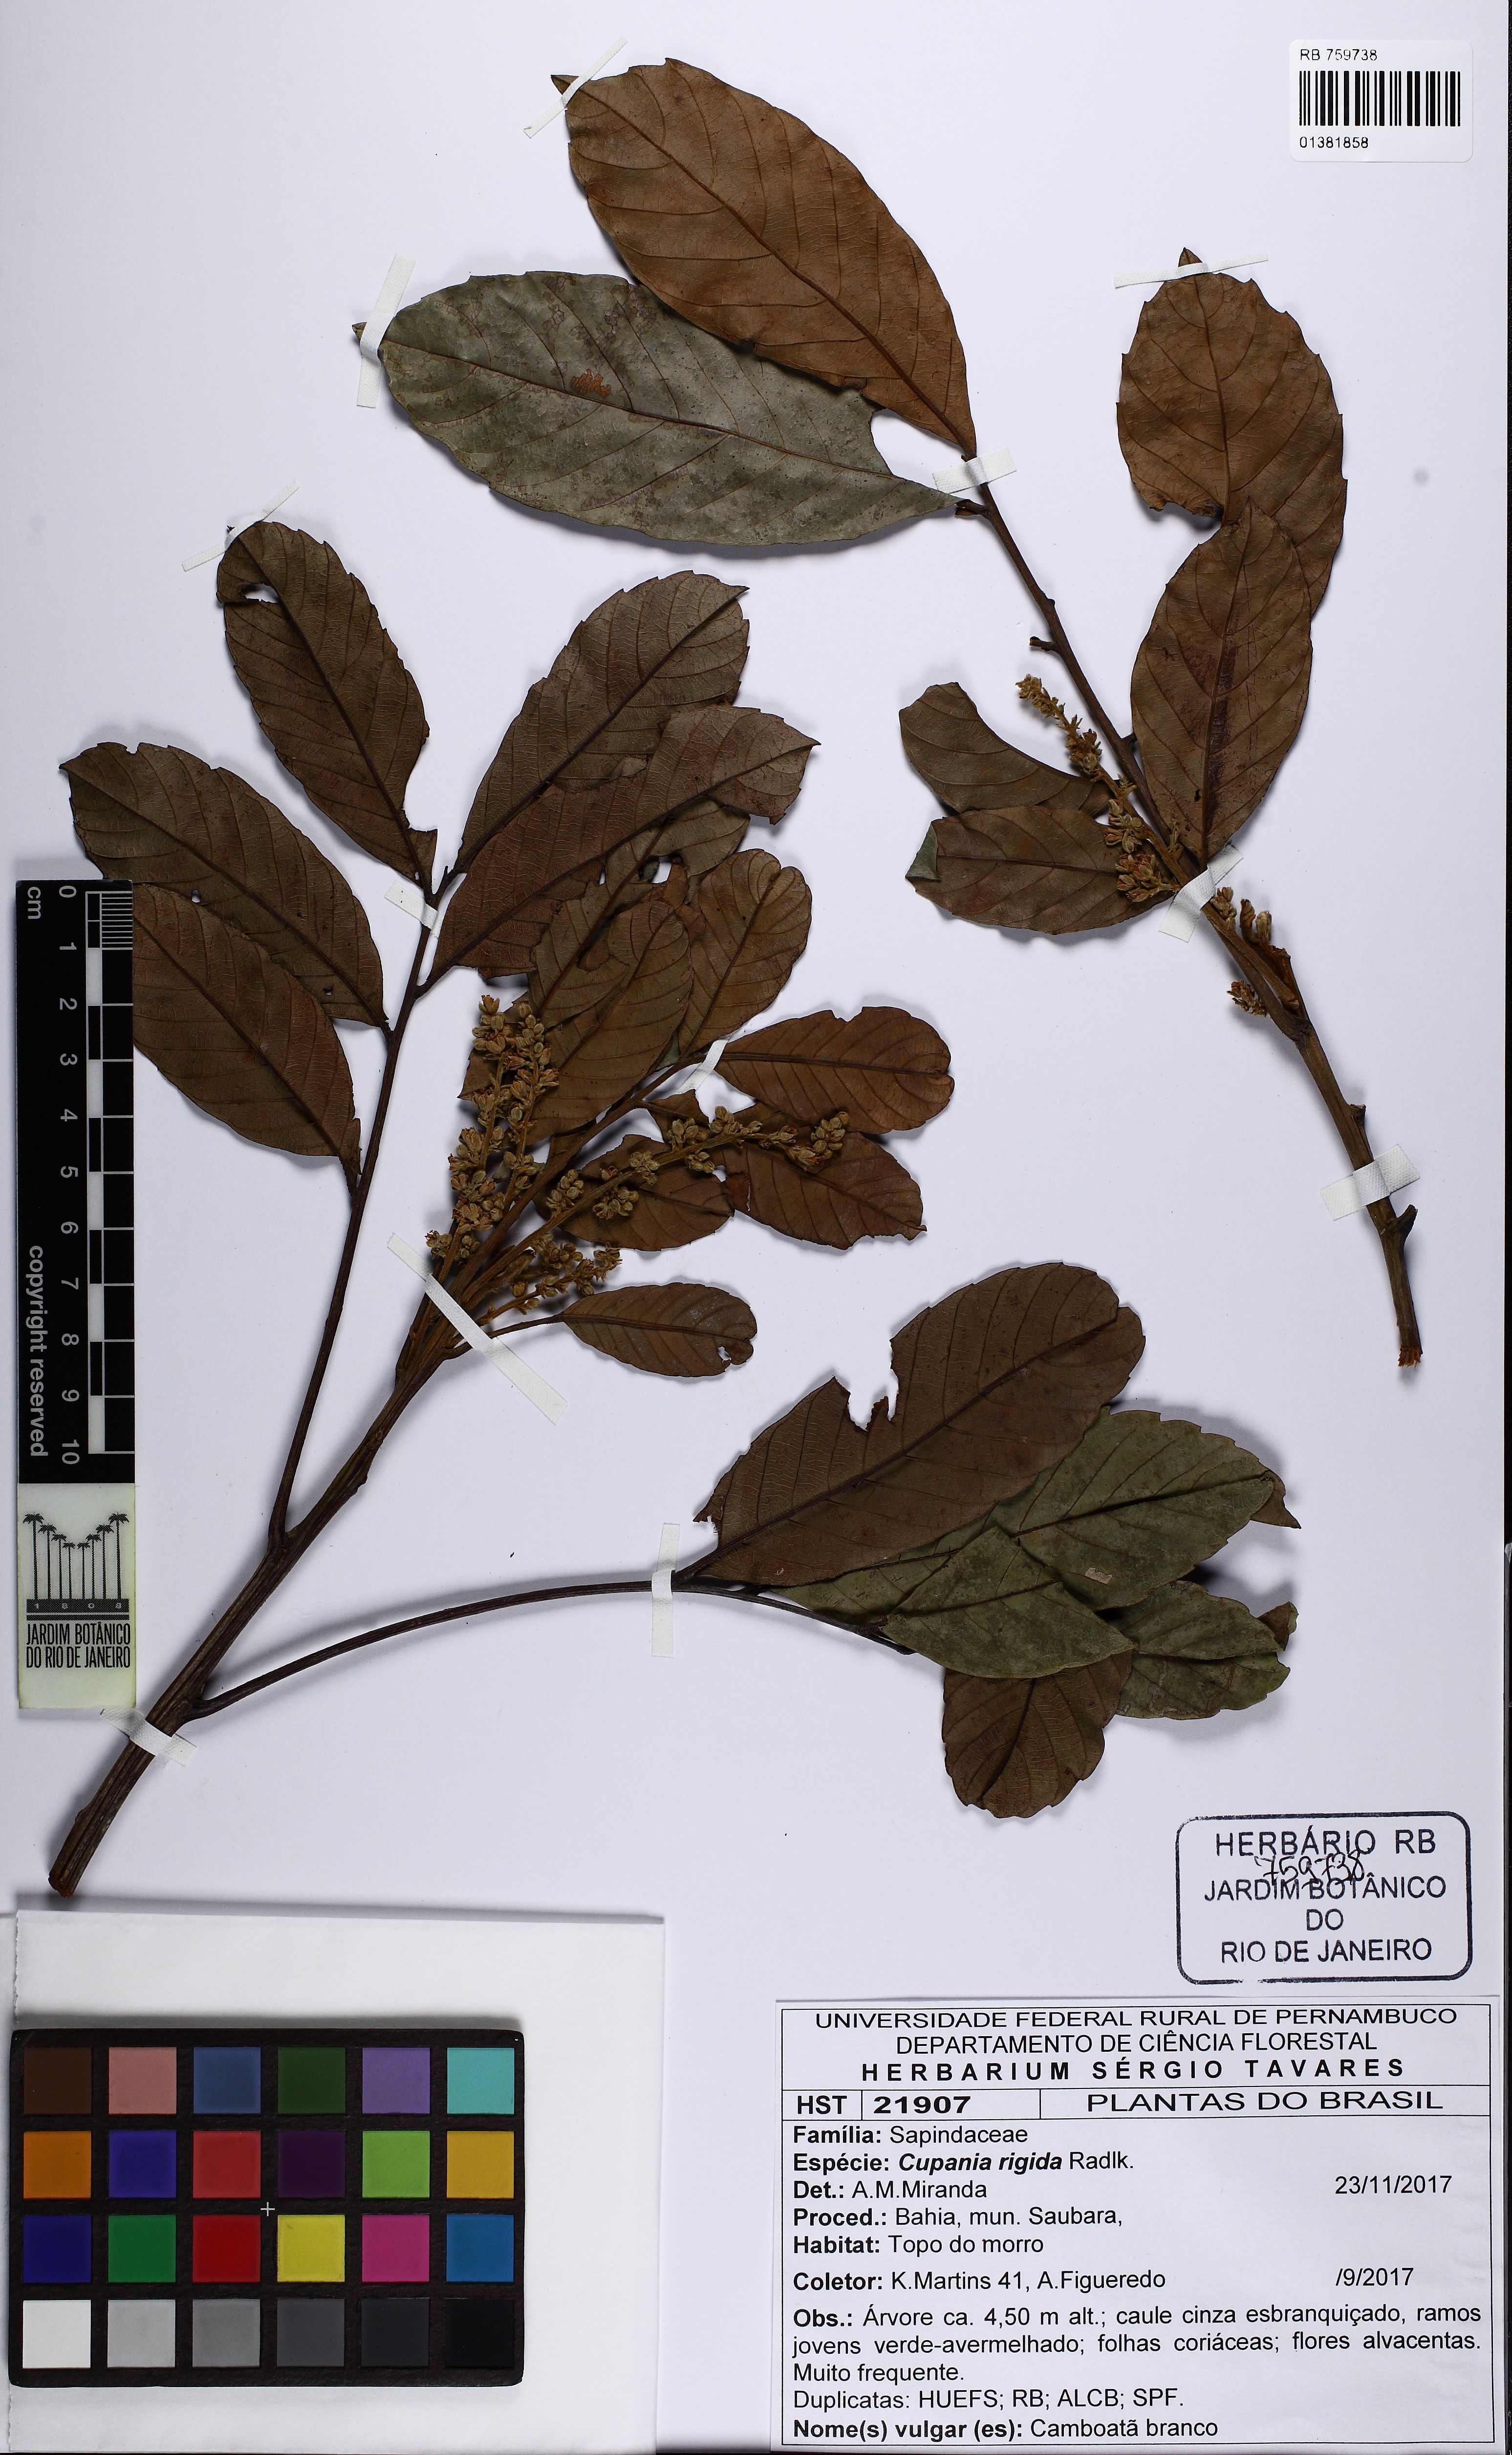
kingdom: Plantae
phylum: Tracheophyta
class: Magnoliopsida
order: Sapindales
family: Sapindaceae
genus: Cupania
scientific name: Cupania rigida
